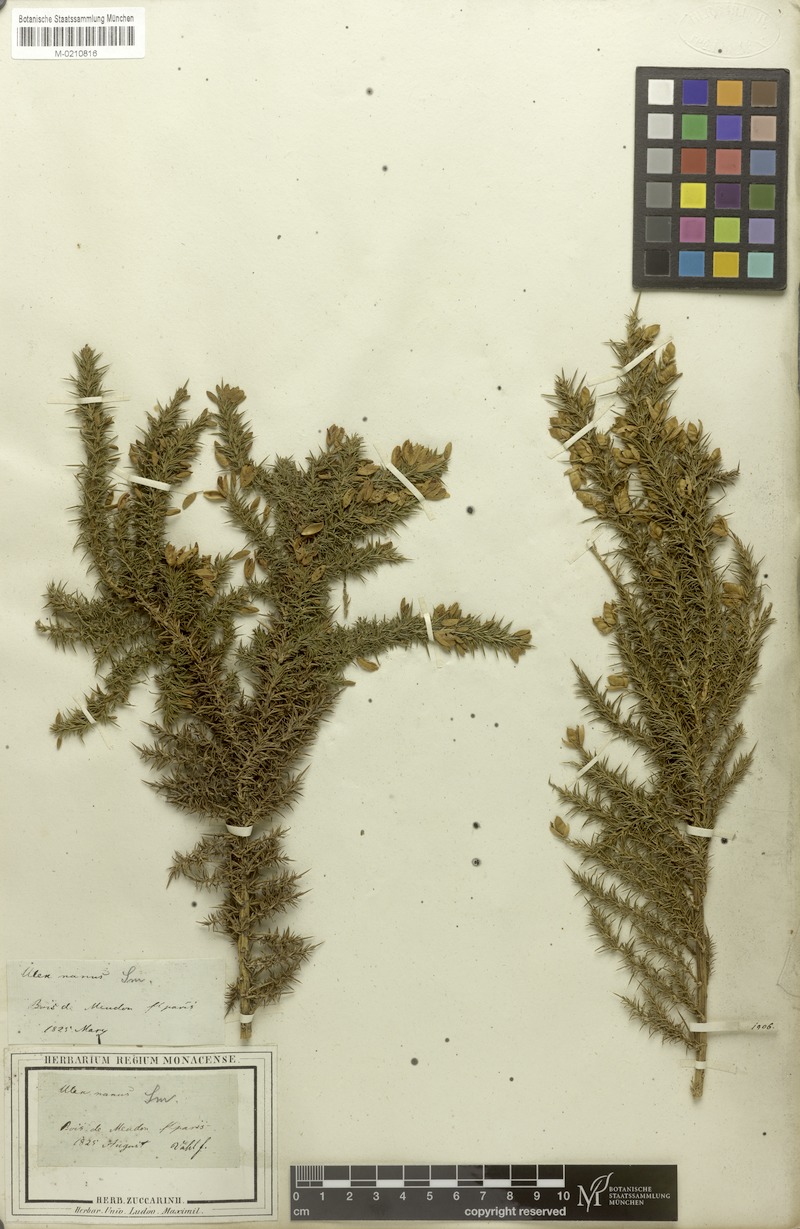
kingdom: Plantae
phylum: Tracheophyta
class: Magnoliopsida
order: Fabales
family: Fabaceae
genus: Ulex
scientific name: Ulex minor
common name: Dwarf gorse
